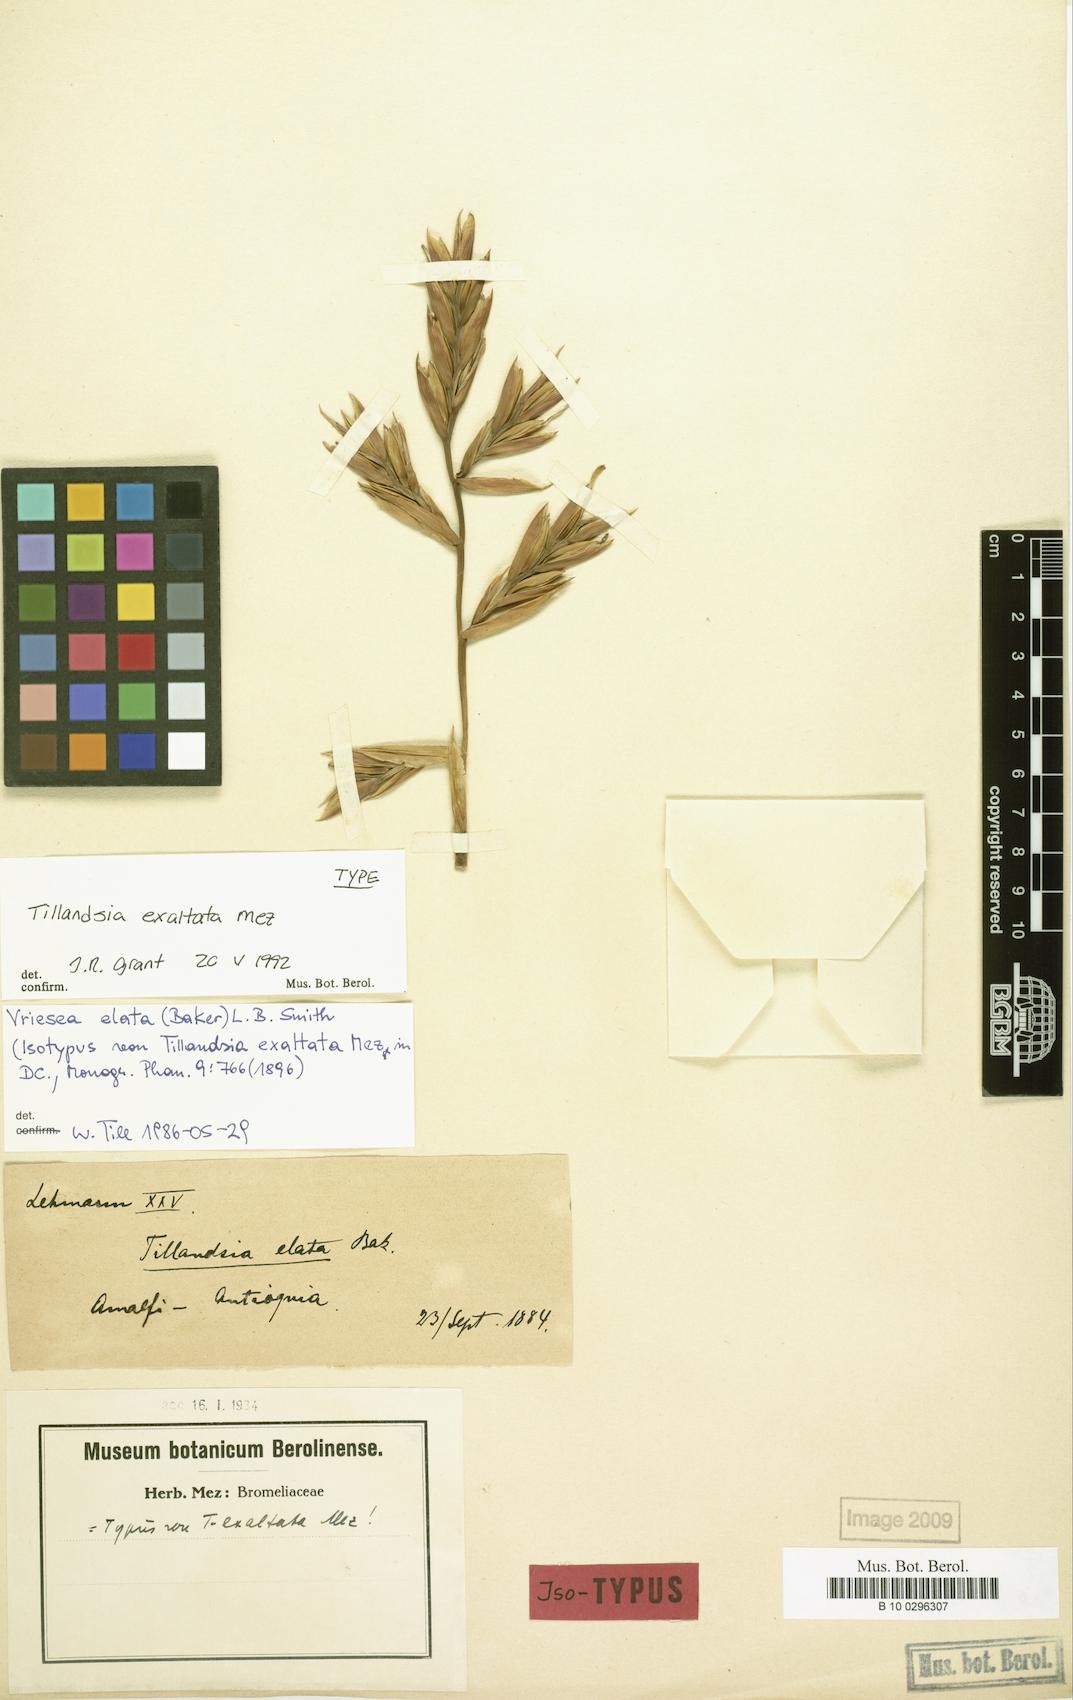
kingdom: Plantae
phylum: Tracheophyta
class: Liliopsida
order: Poales
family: Bromeliaceae
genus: Vriesea
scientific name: Vriesea elata
